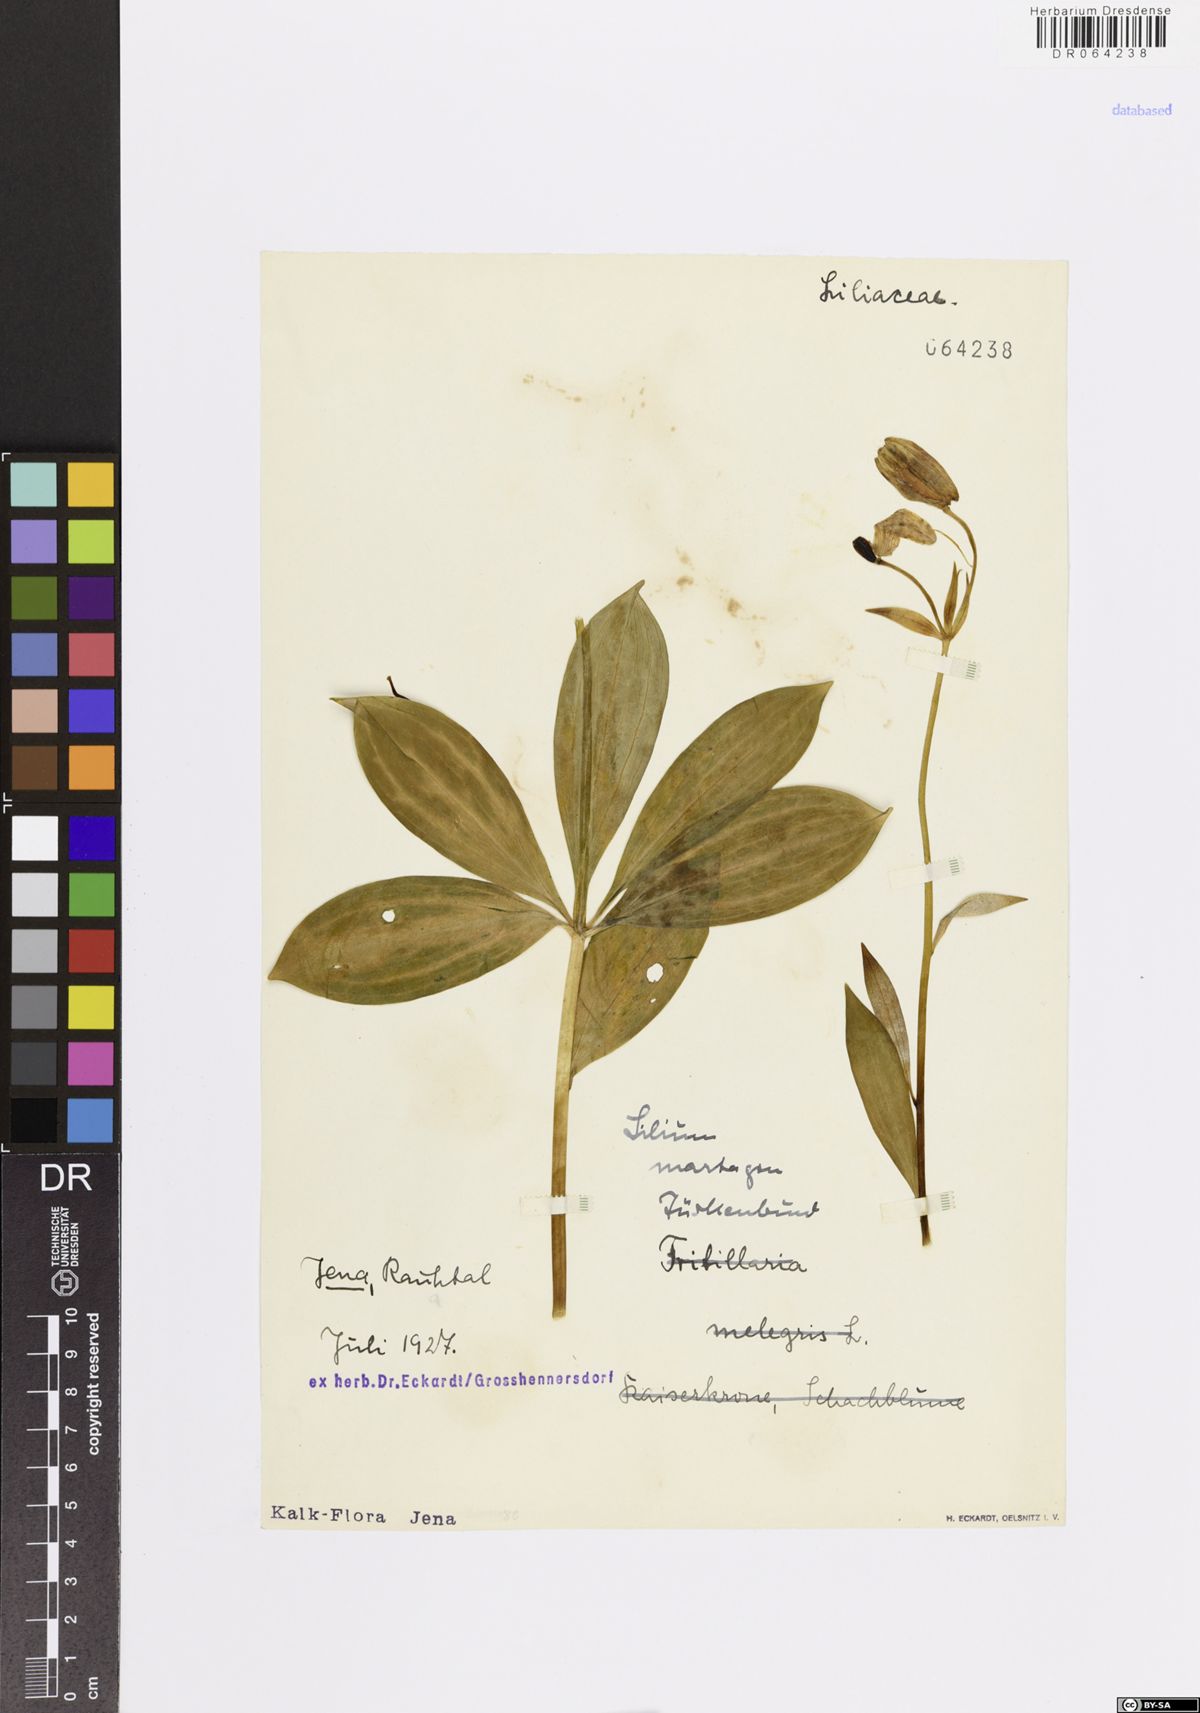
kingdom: Plantae
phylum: Tracheophyta
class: Liliopsida
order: Liliales
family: Liliaceae
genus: Lilium
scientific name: Lilium martagon
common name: Martagon lily
